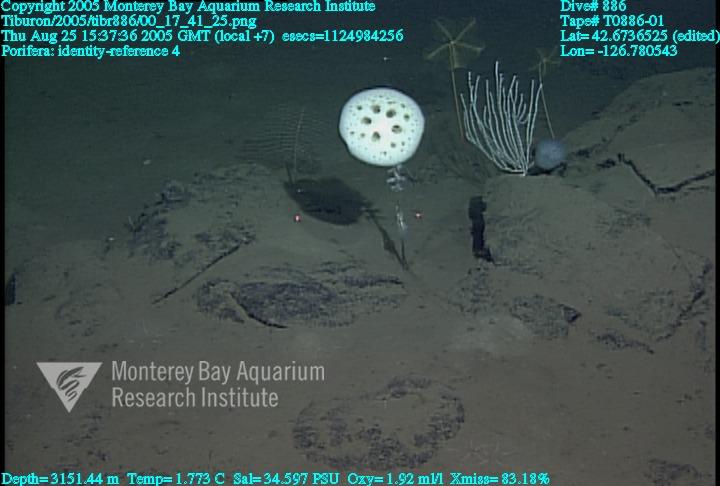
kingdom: Animalia
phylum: Porifera
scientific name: Porifera
